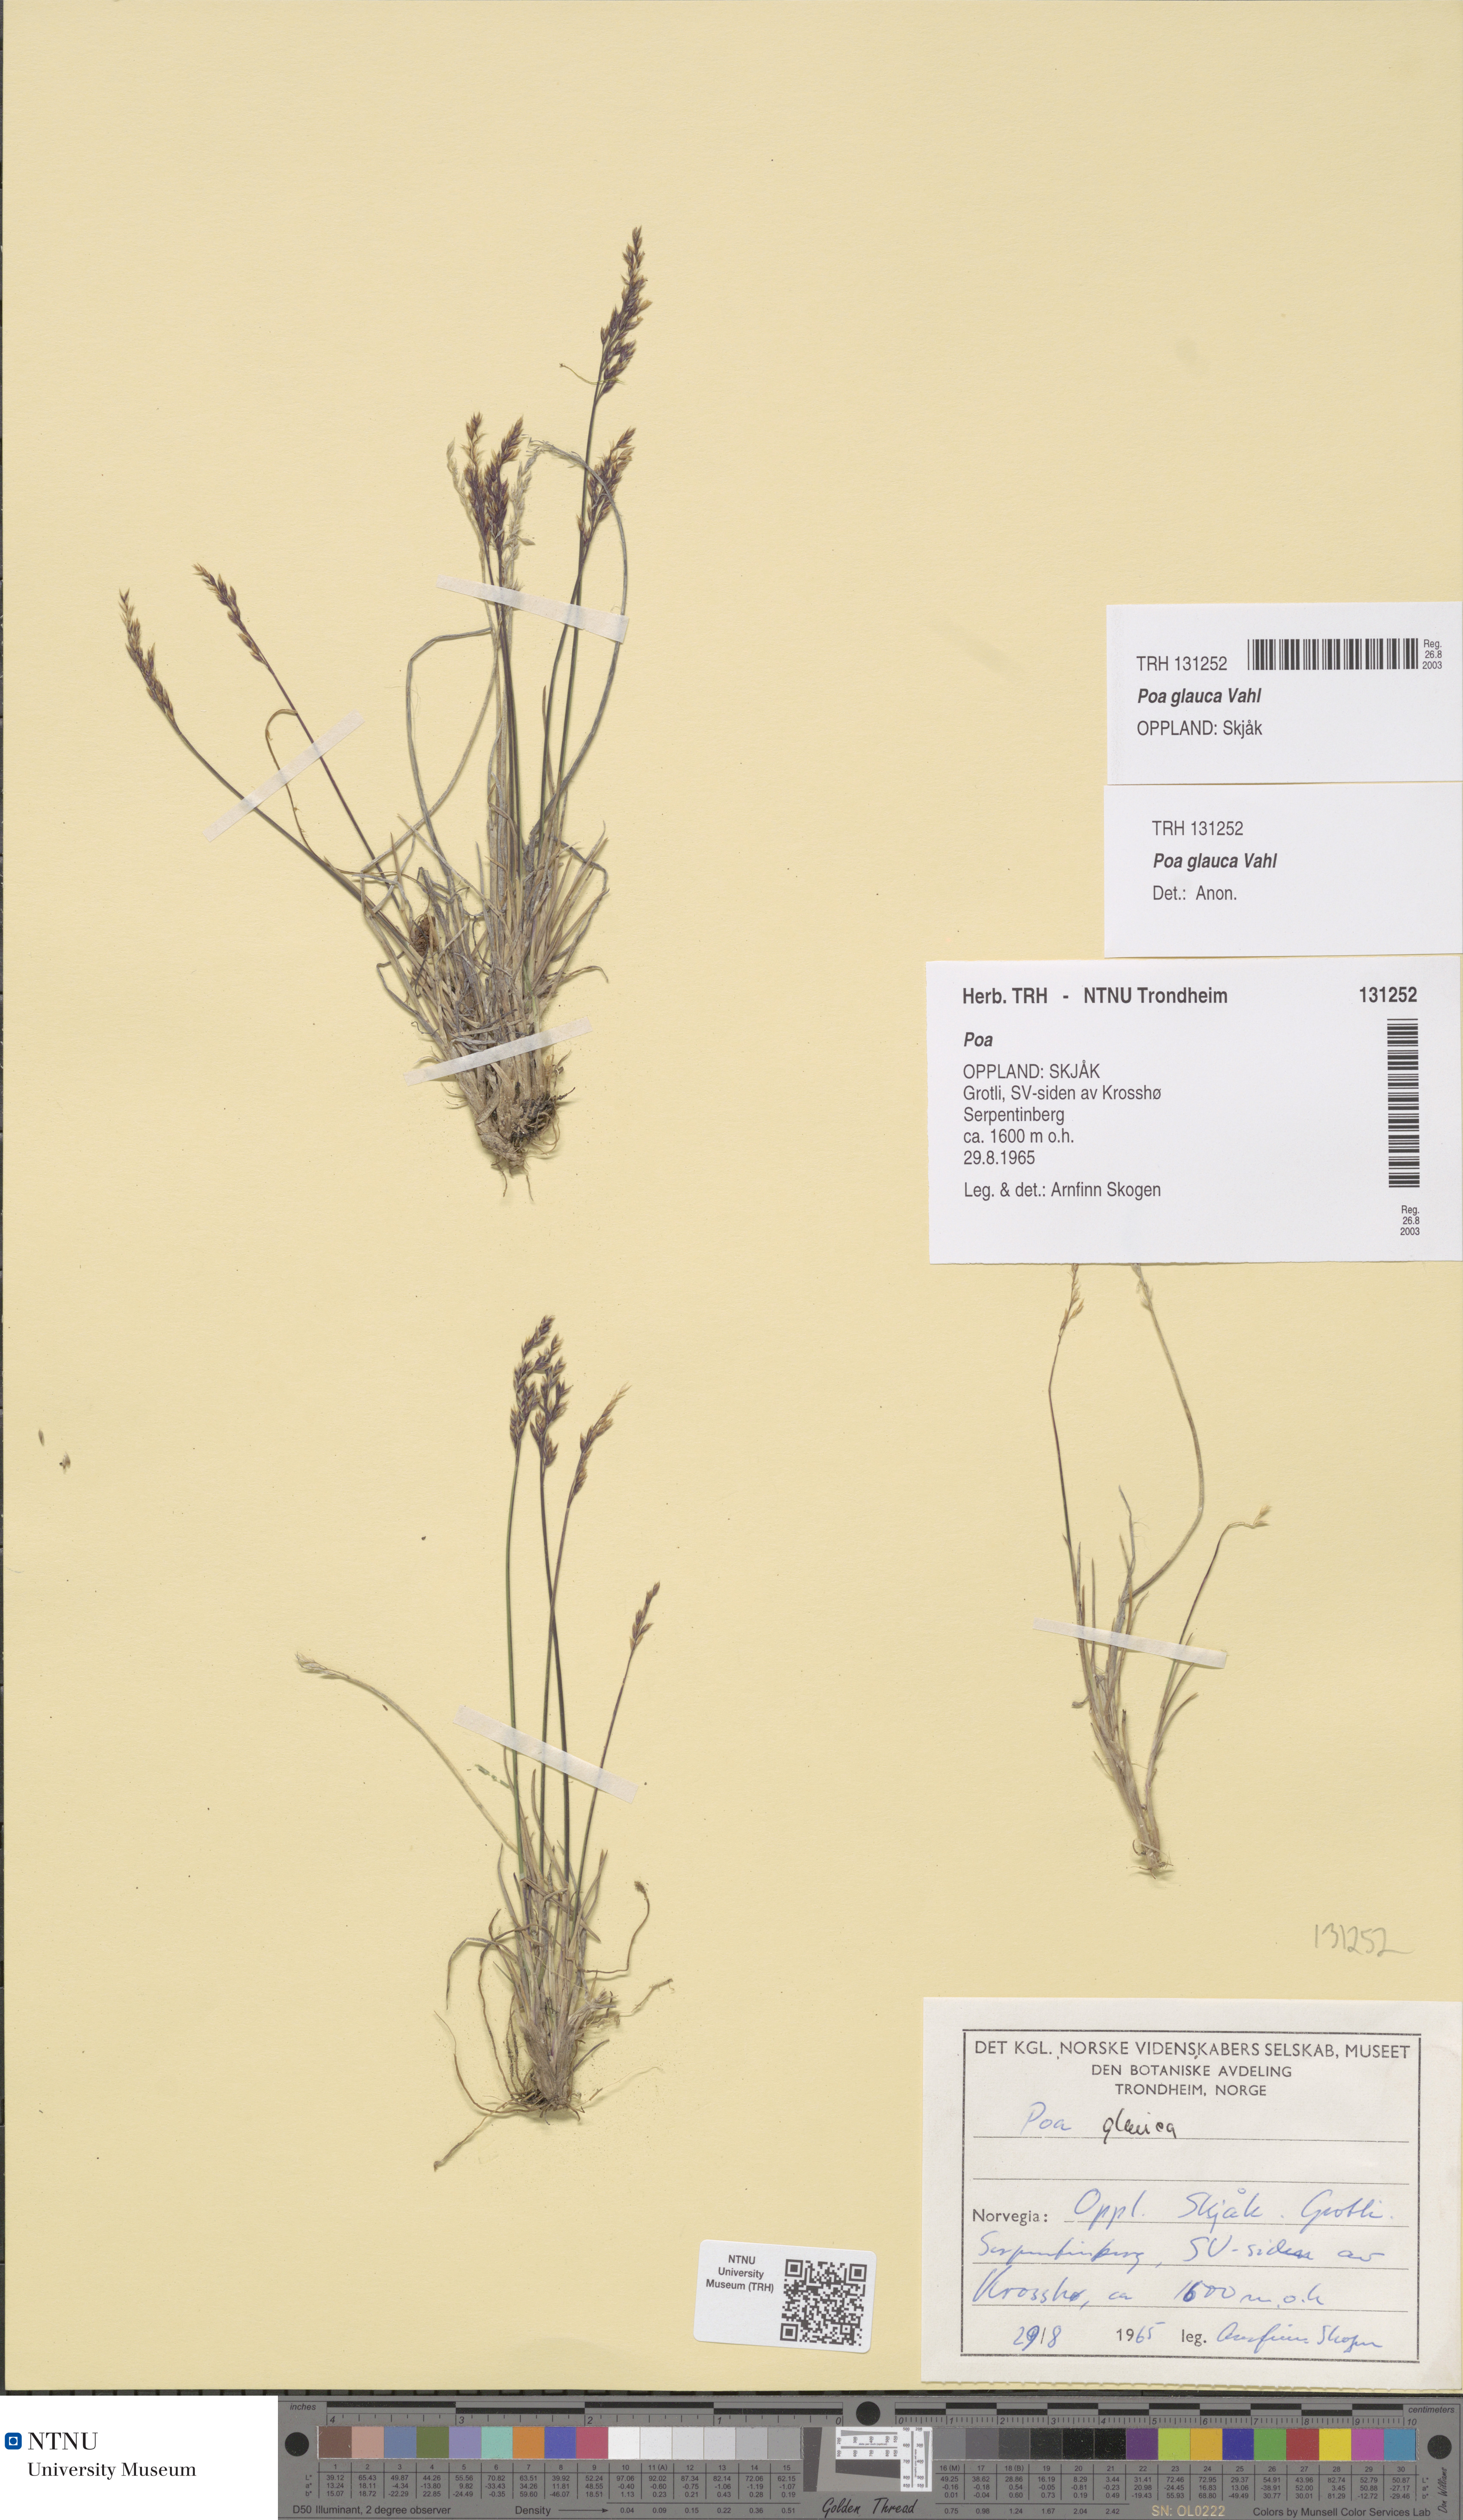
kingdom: Plantae
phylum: Tracheophyta
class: Liliopsida
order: Poales
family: Poaceae
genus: Poa
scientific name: Poa glauca
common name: Glaucous bluegrass
